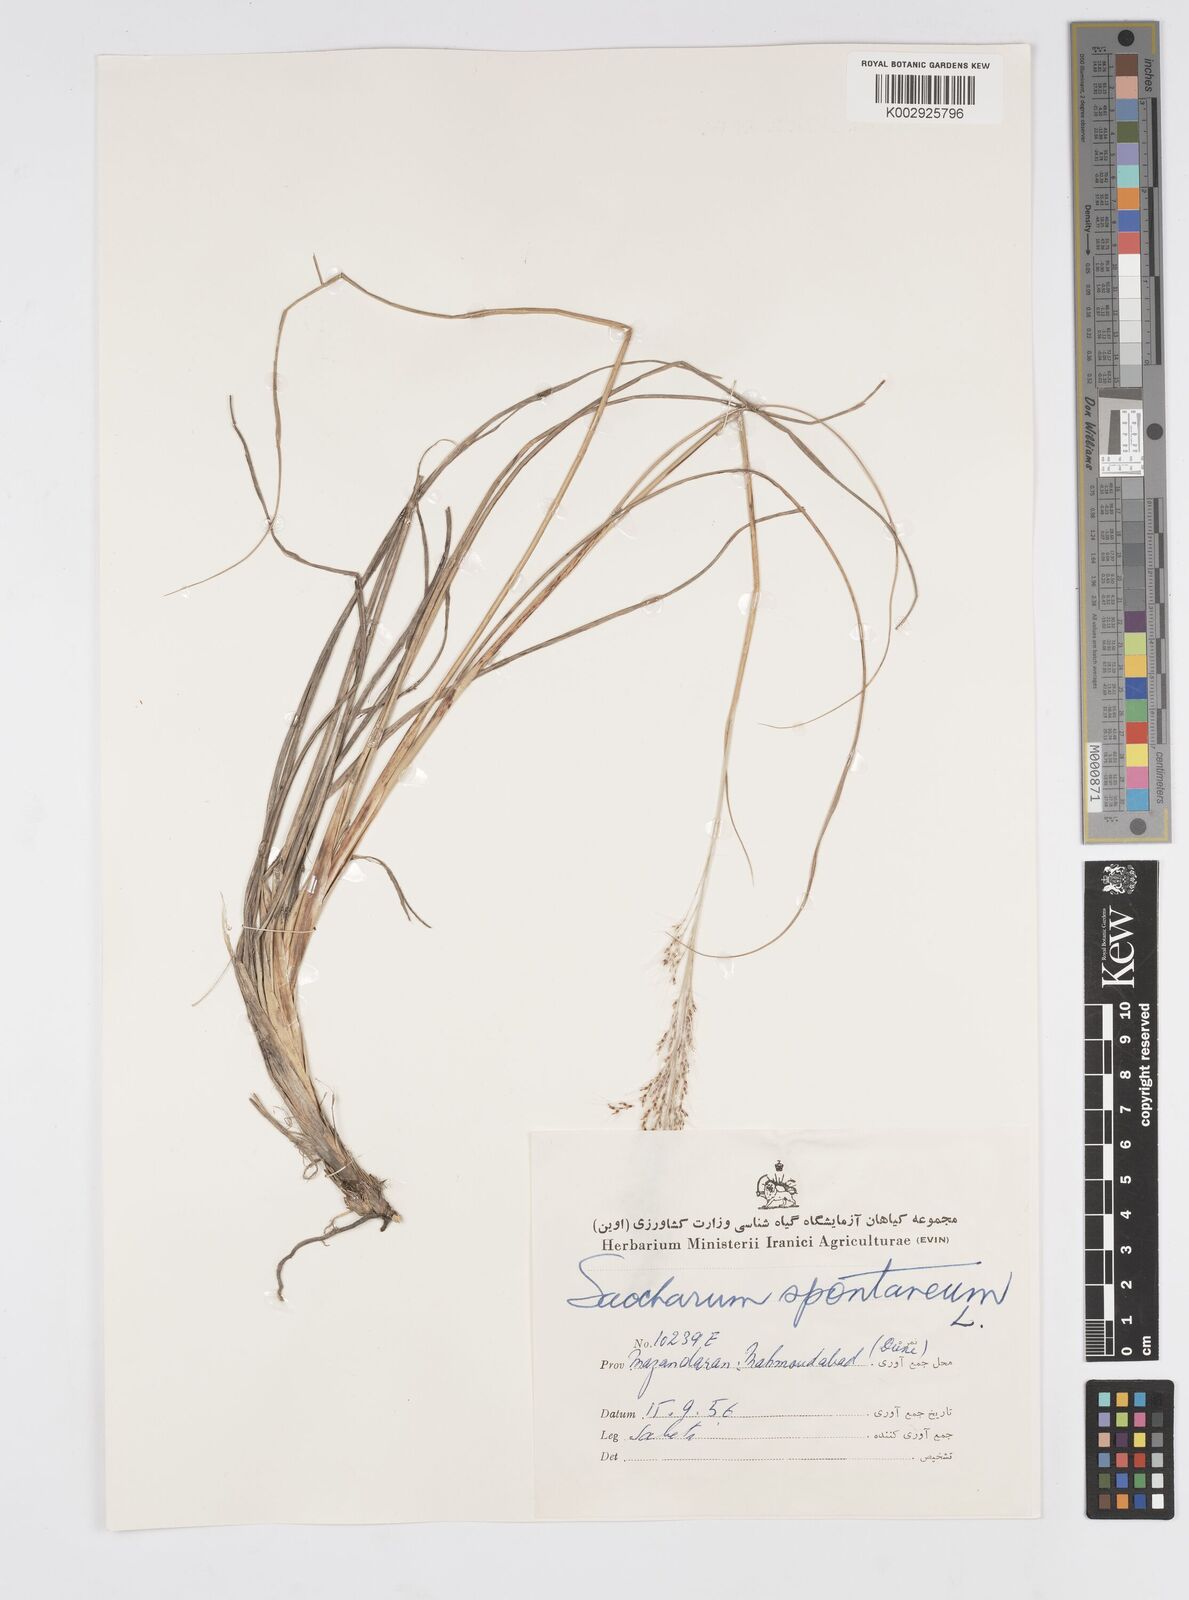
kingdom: Plantae
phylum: Tracheophyta
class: Liliopsida
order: Poales
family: Poaceae
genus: Saccharum
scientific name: Saccharum spontaneum
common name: Wild sugarcane
